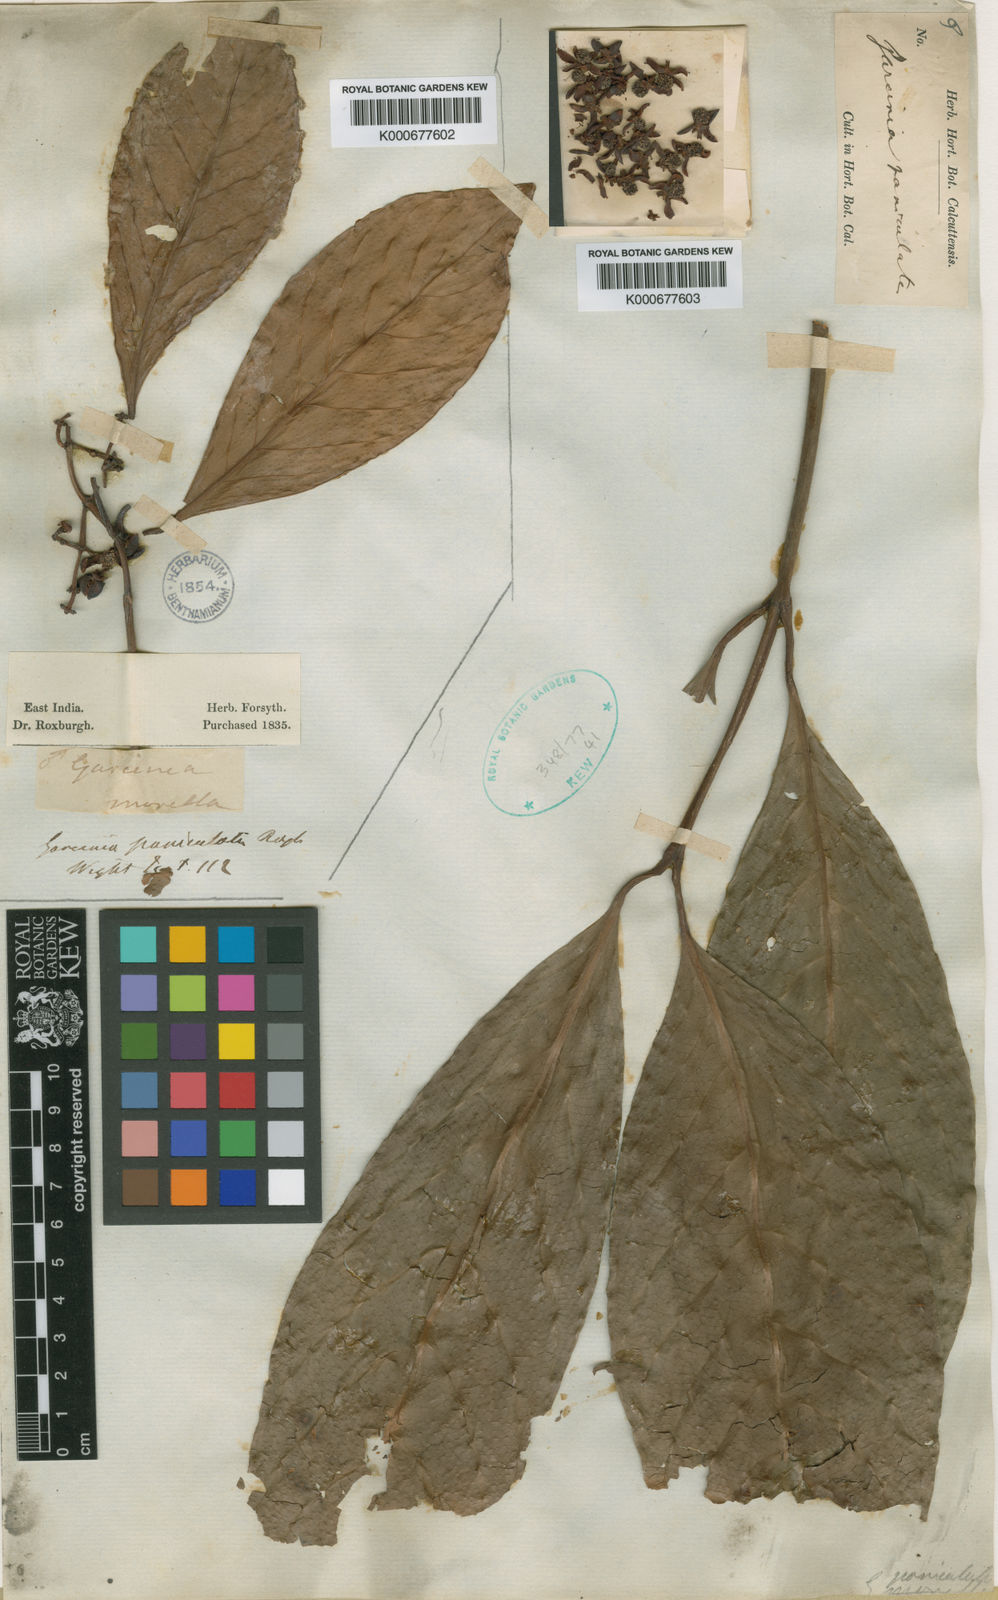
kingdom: Plantae
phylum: Tracheophyta
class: Magnoliopsida
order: Malpighiales
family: Clusiaceae
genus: Garcinia
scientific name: Garcinia sopsopia
